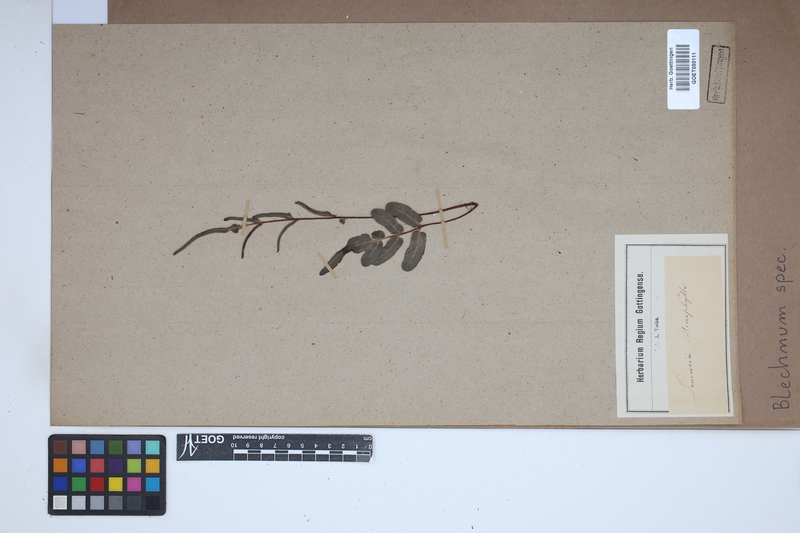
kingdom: Plantae
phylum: Tracheophyta
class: Polypodiopsida
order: Polypodiales
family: Blechnaceae
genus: Blechnum
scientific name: Blechnum
